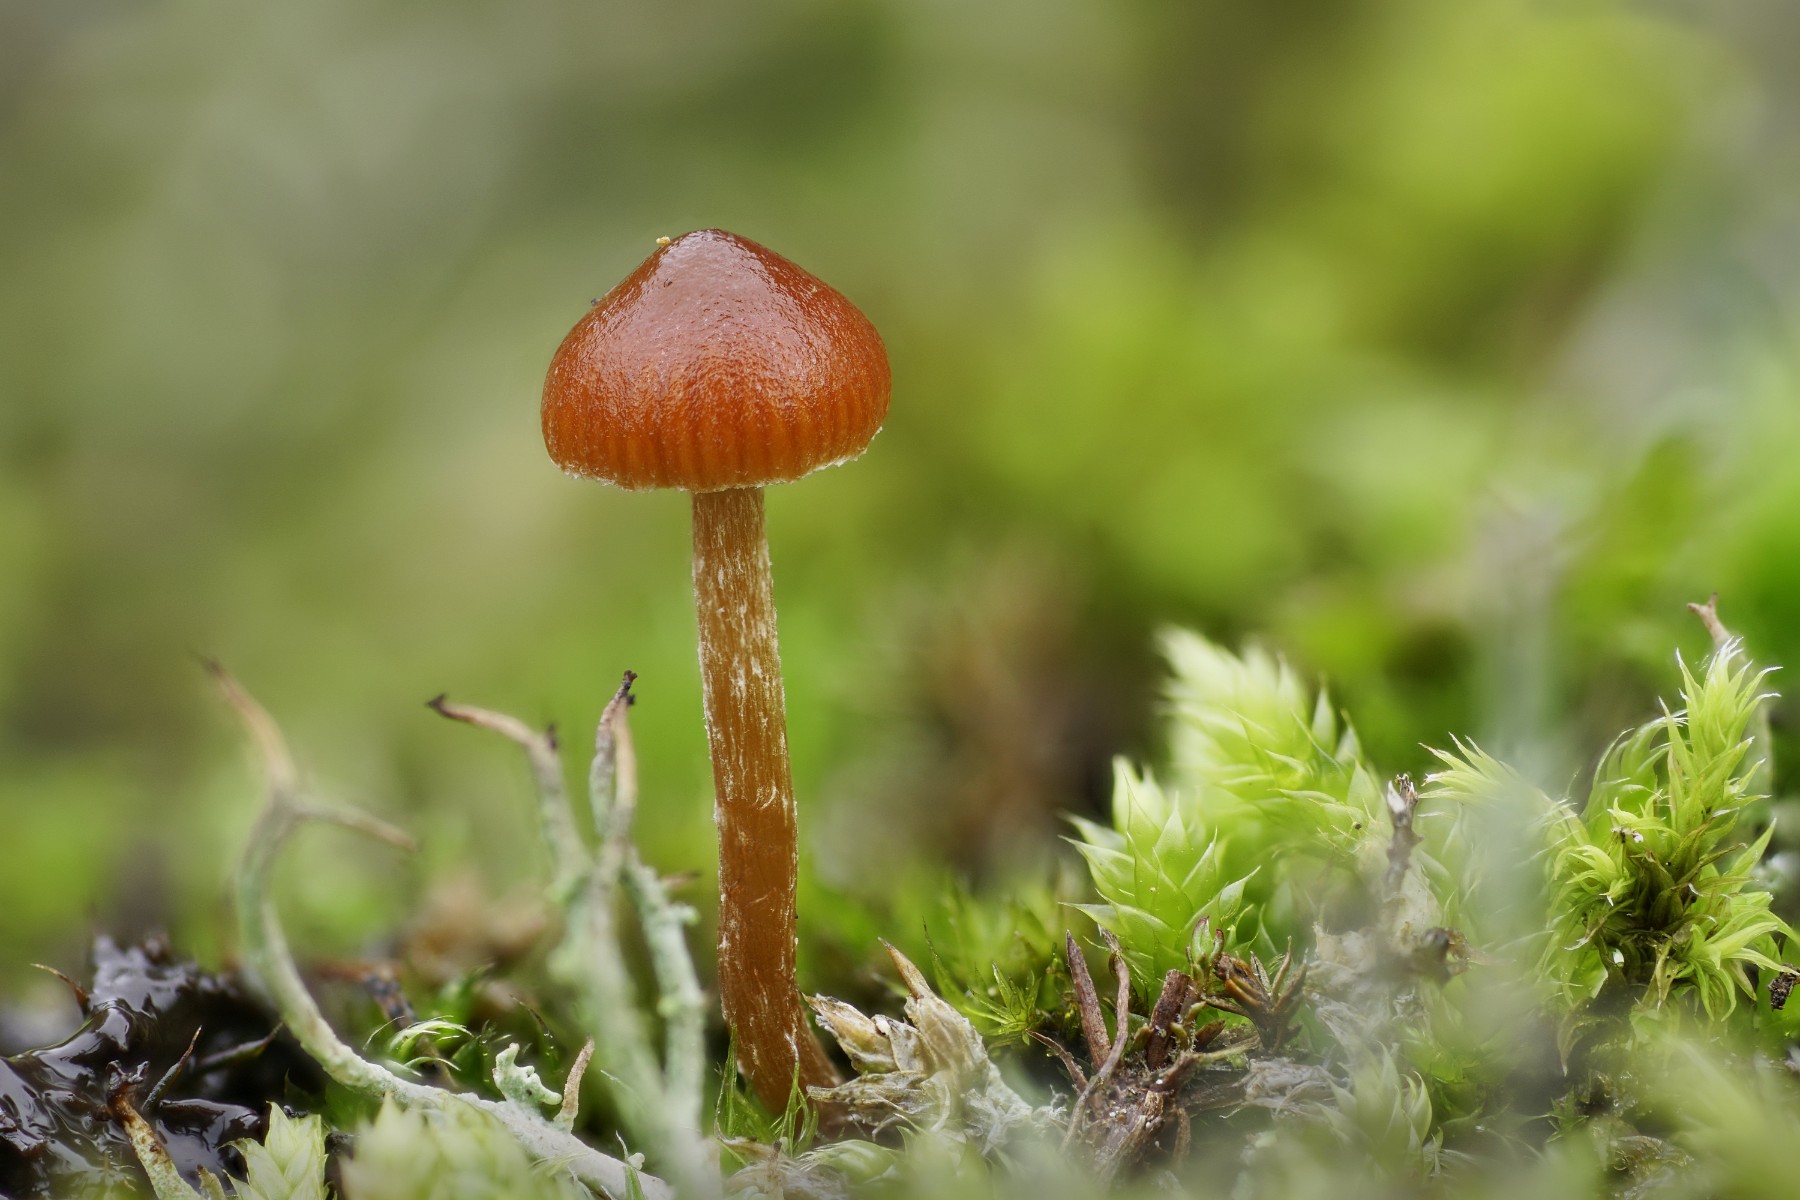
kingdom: Fungi
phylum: Basidiomycota
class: Agaricomycetes
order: Agaricales
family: Strophariaceae
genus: Deconica
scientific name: Deconica montana
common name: rødbrun stråhat
